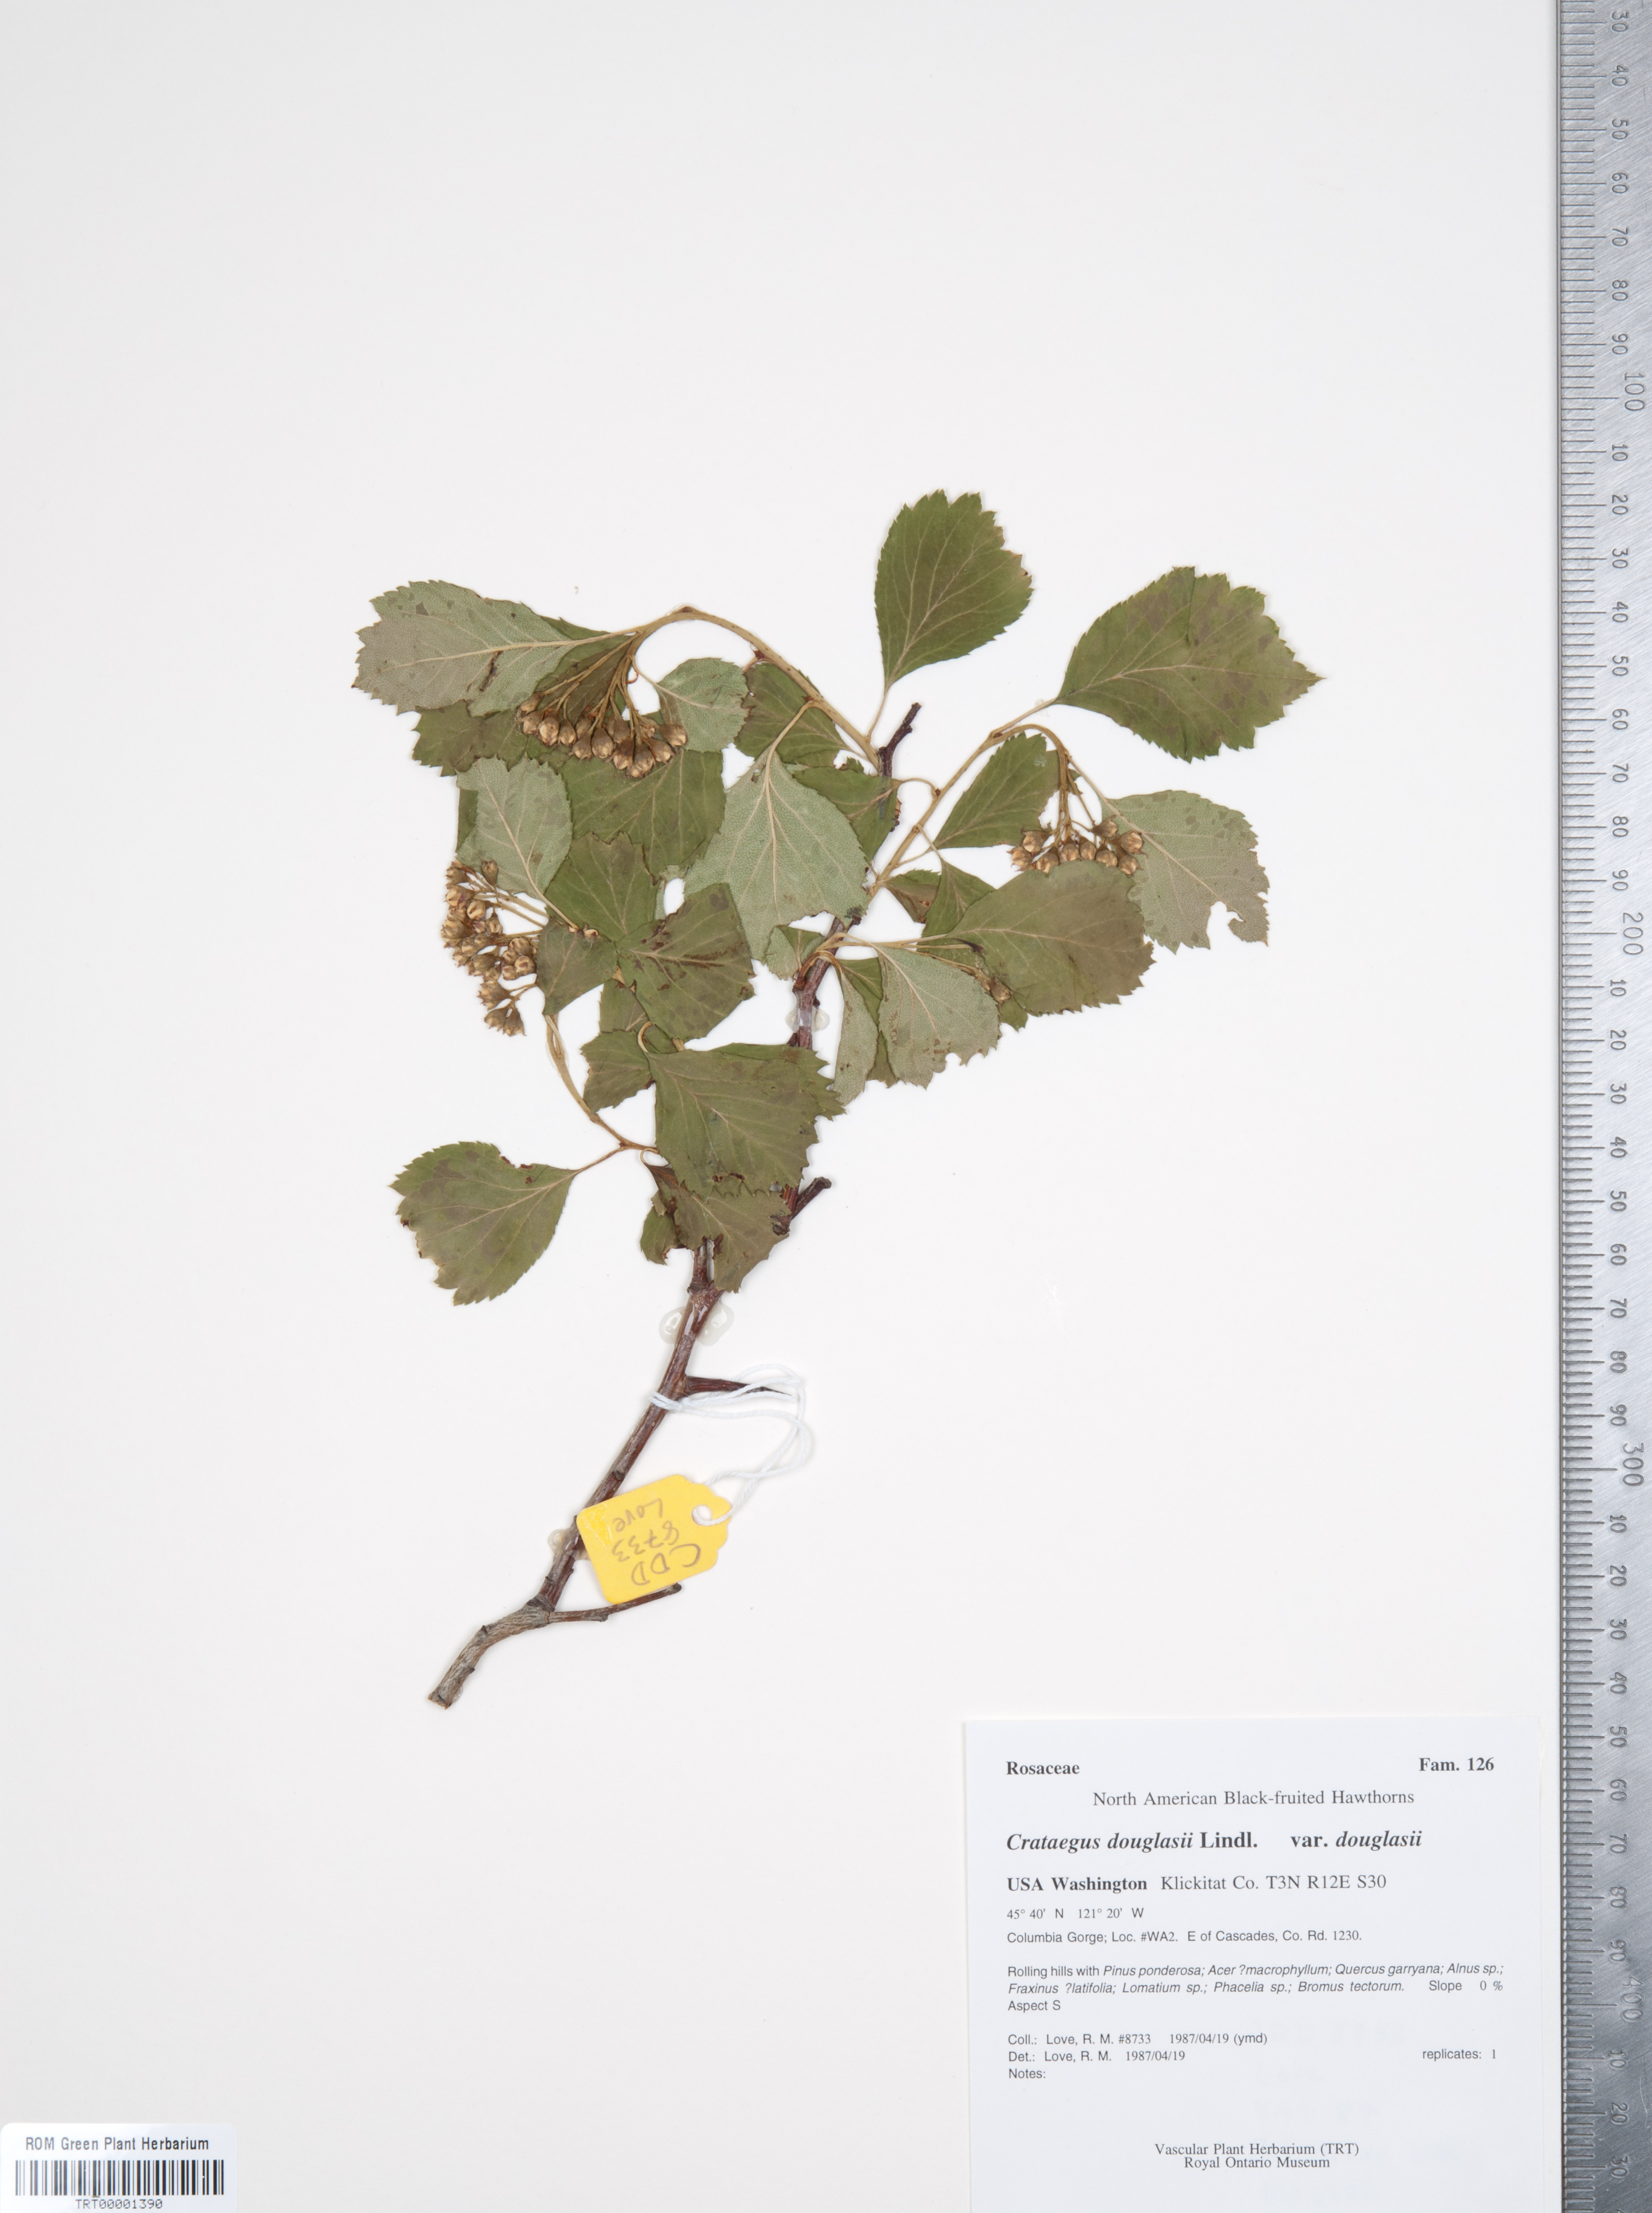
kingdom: Plantae
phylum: Tracheophyta
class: Magnoliopsida
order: Rosales
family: Rosaceae
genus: Crataegus
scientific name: Crataegus douglasii
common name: Black hawthorn
